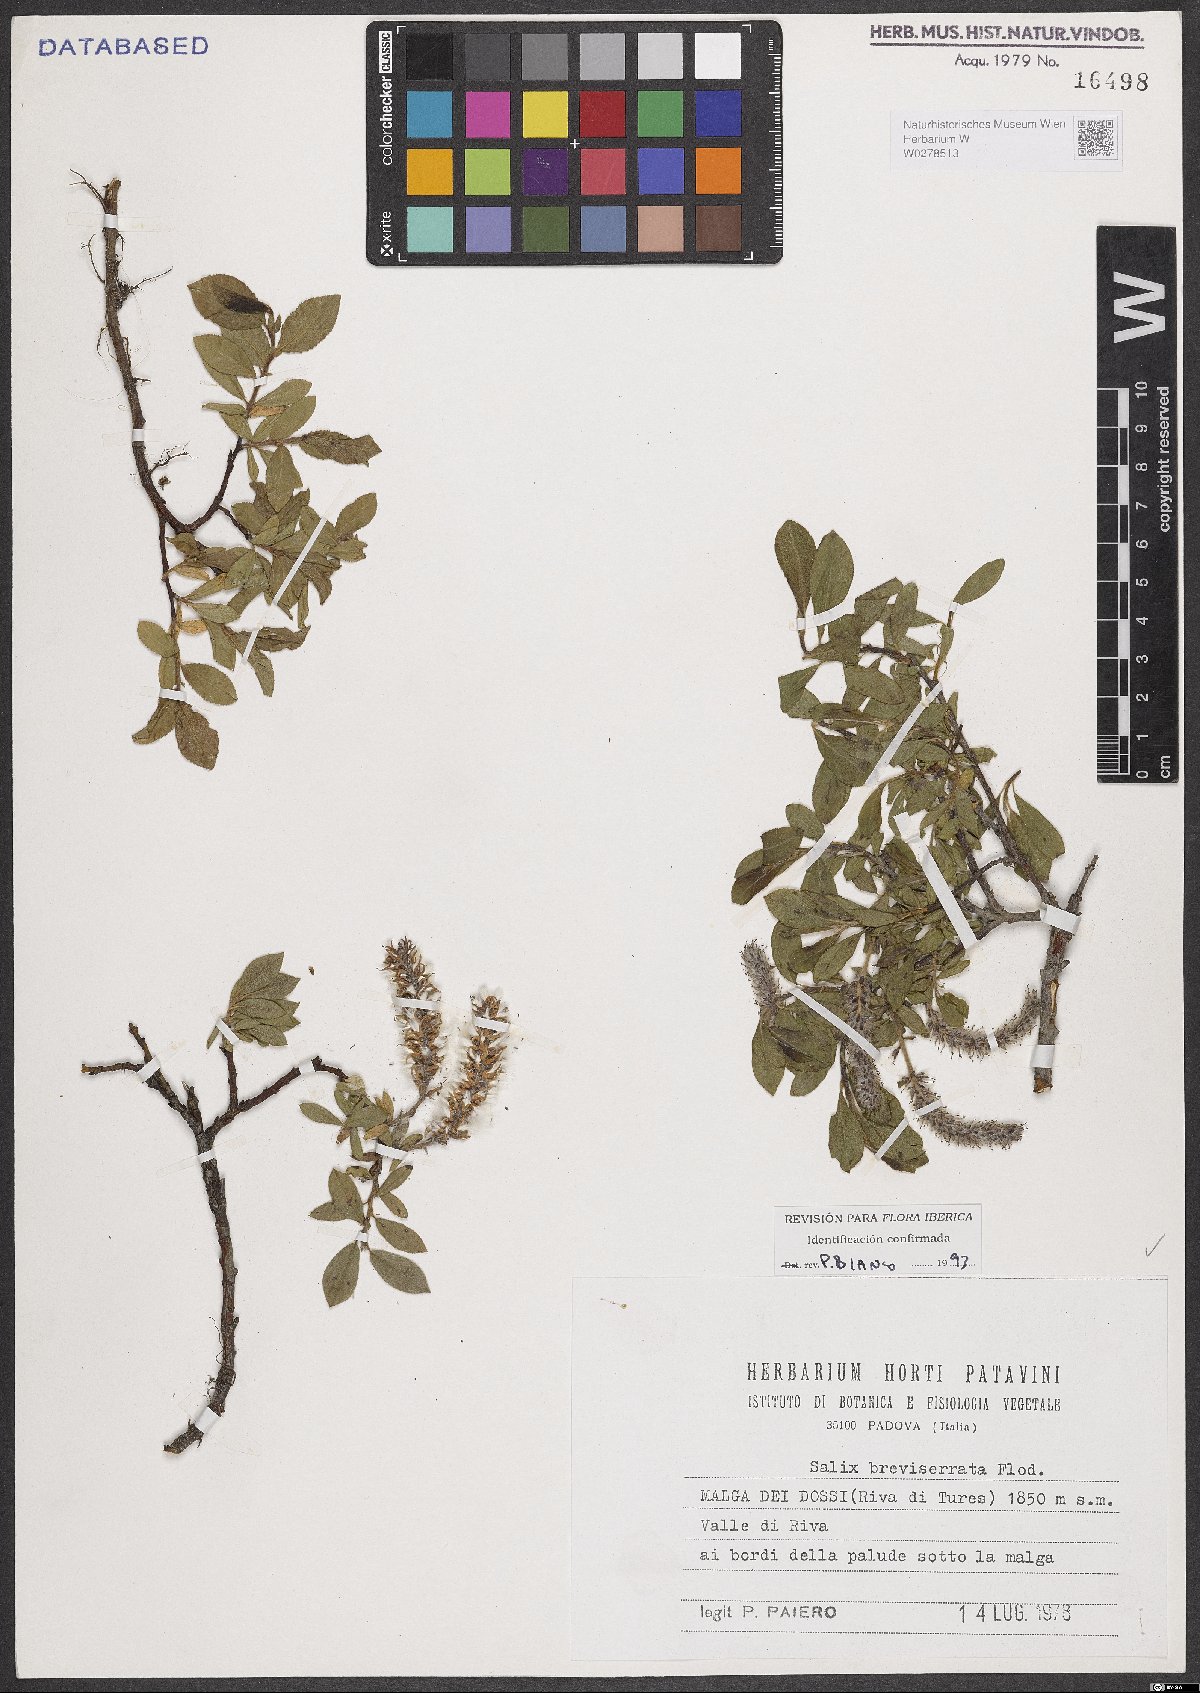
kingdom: Plantae
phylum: Tracheophyta
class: Magnoliopsida
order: Malpighiales
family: Salicaceae
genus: Salix
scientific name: Salix breviserrata
